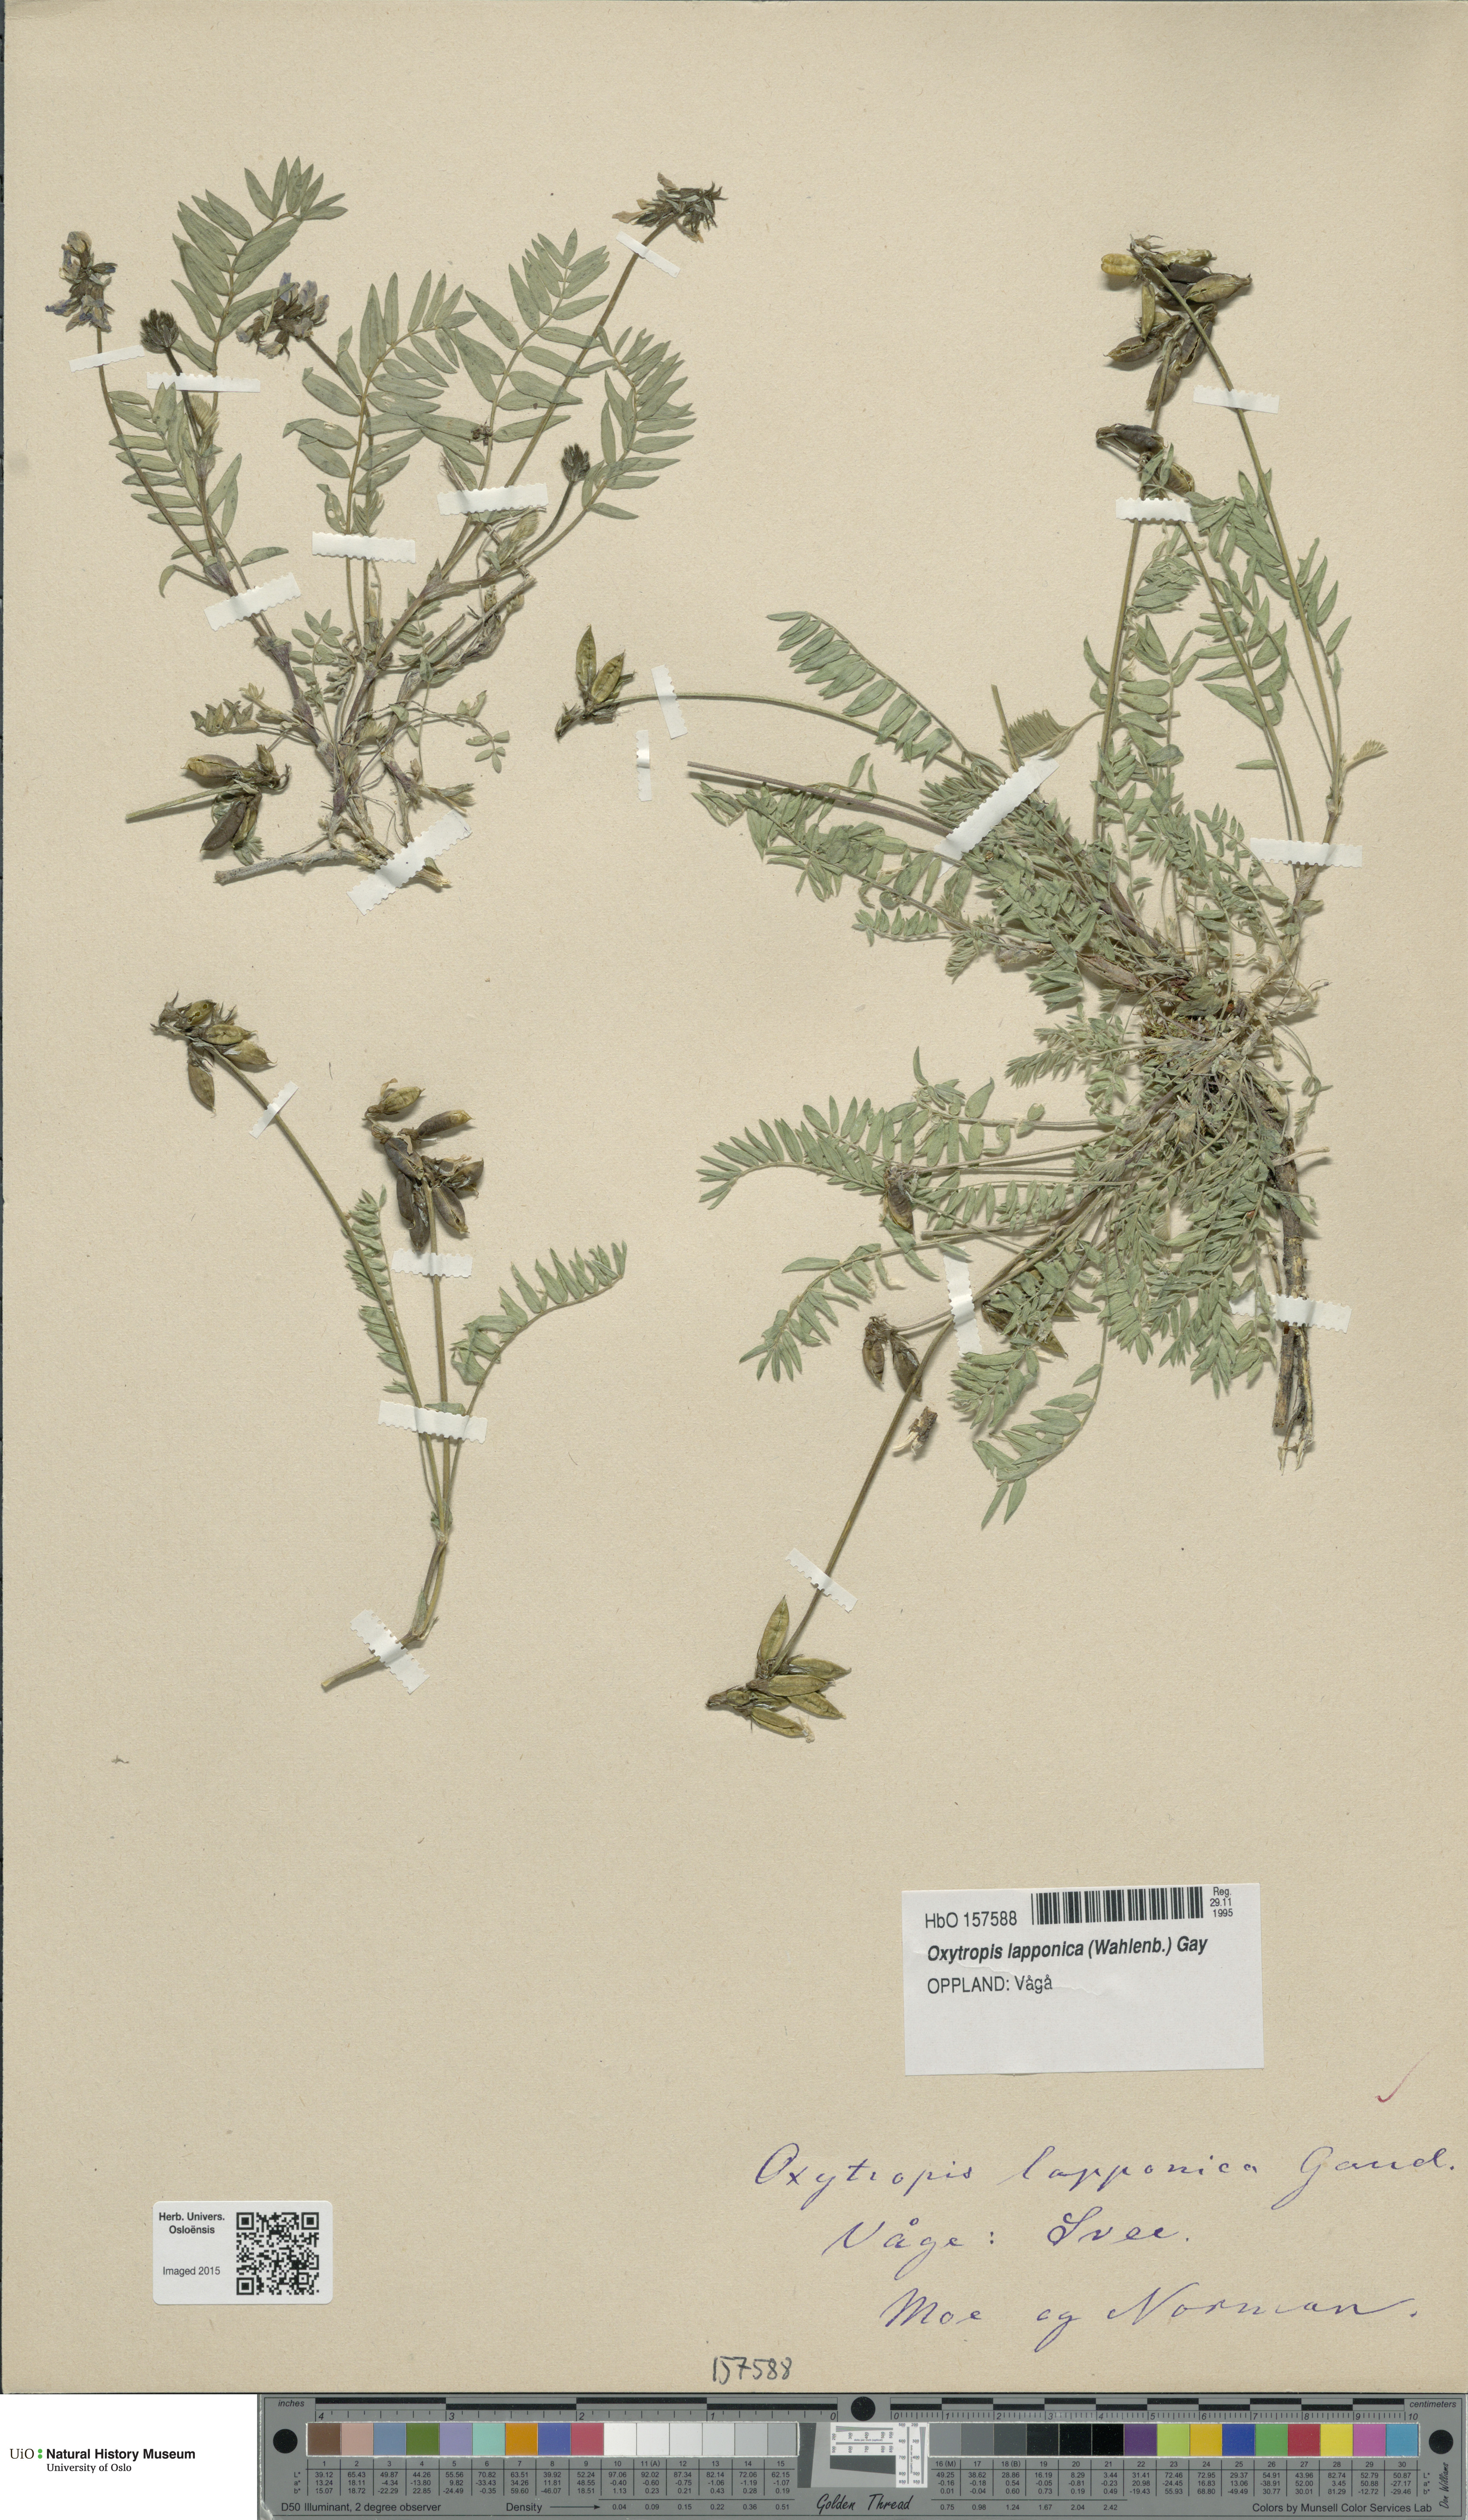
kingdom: Plantae
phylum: Tracheophyta
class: Magnoliopsida
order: Fabales
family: Fabaceae
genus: Oxytropis
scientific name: Oxytropis lapponica
